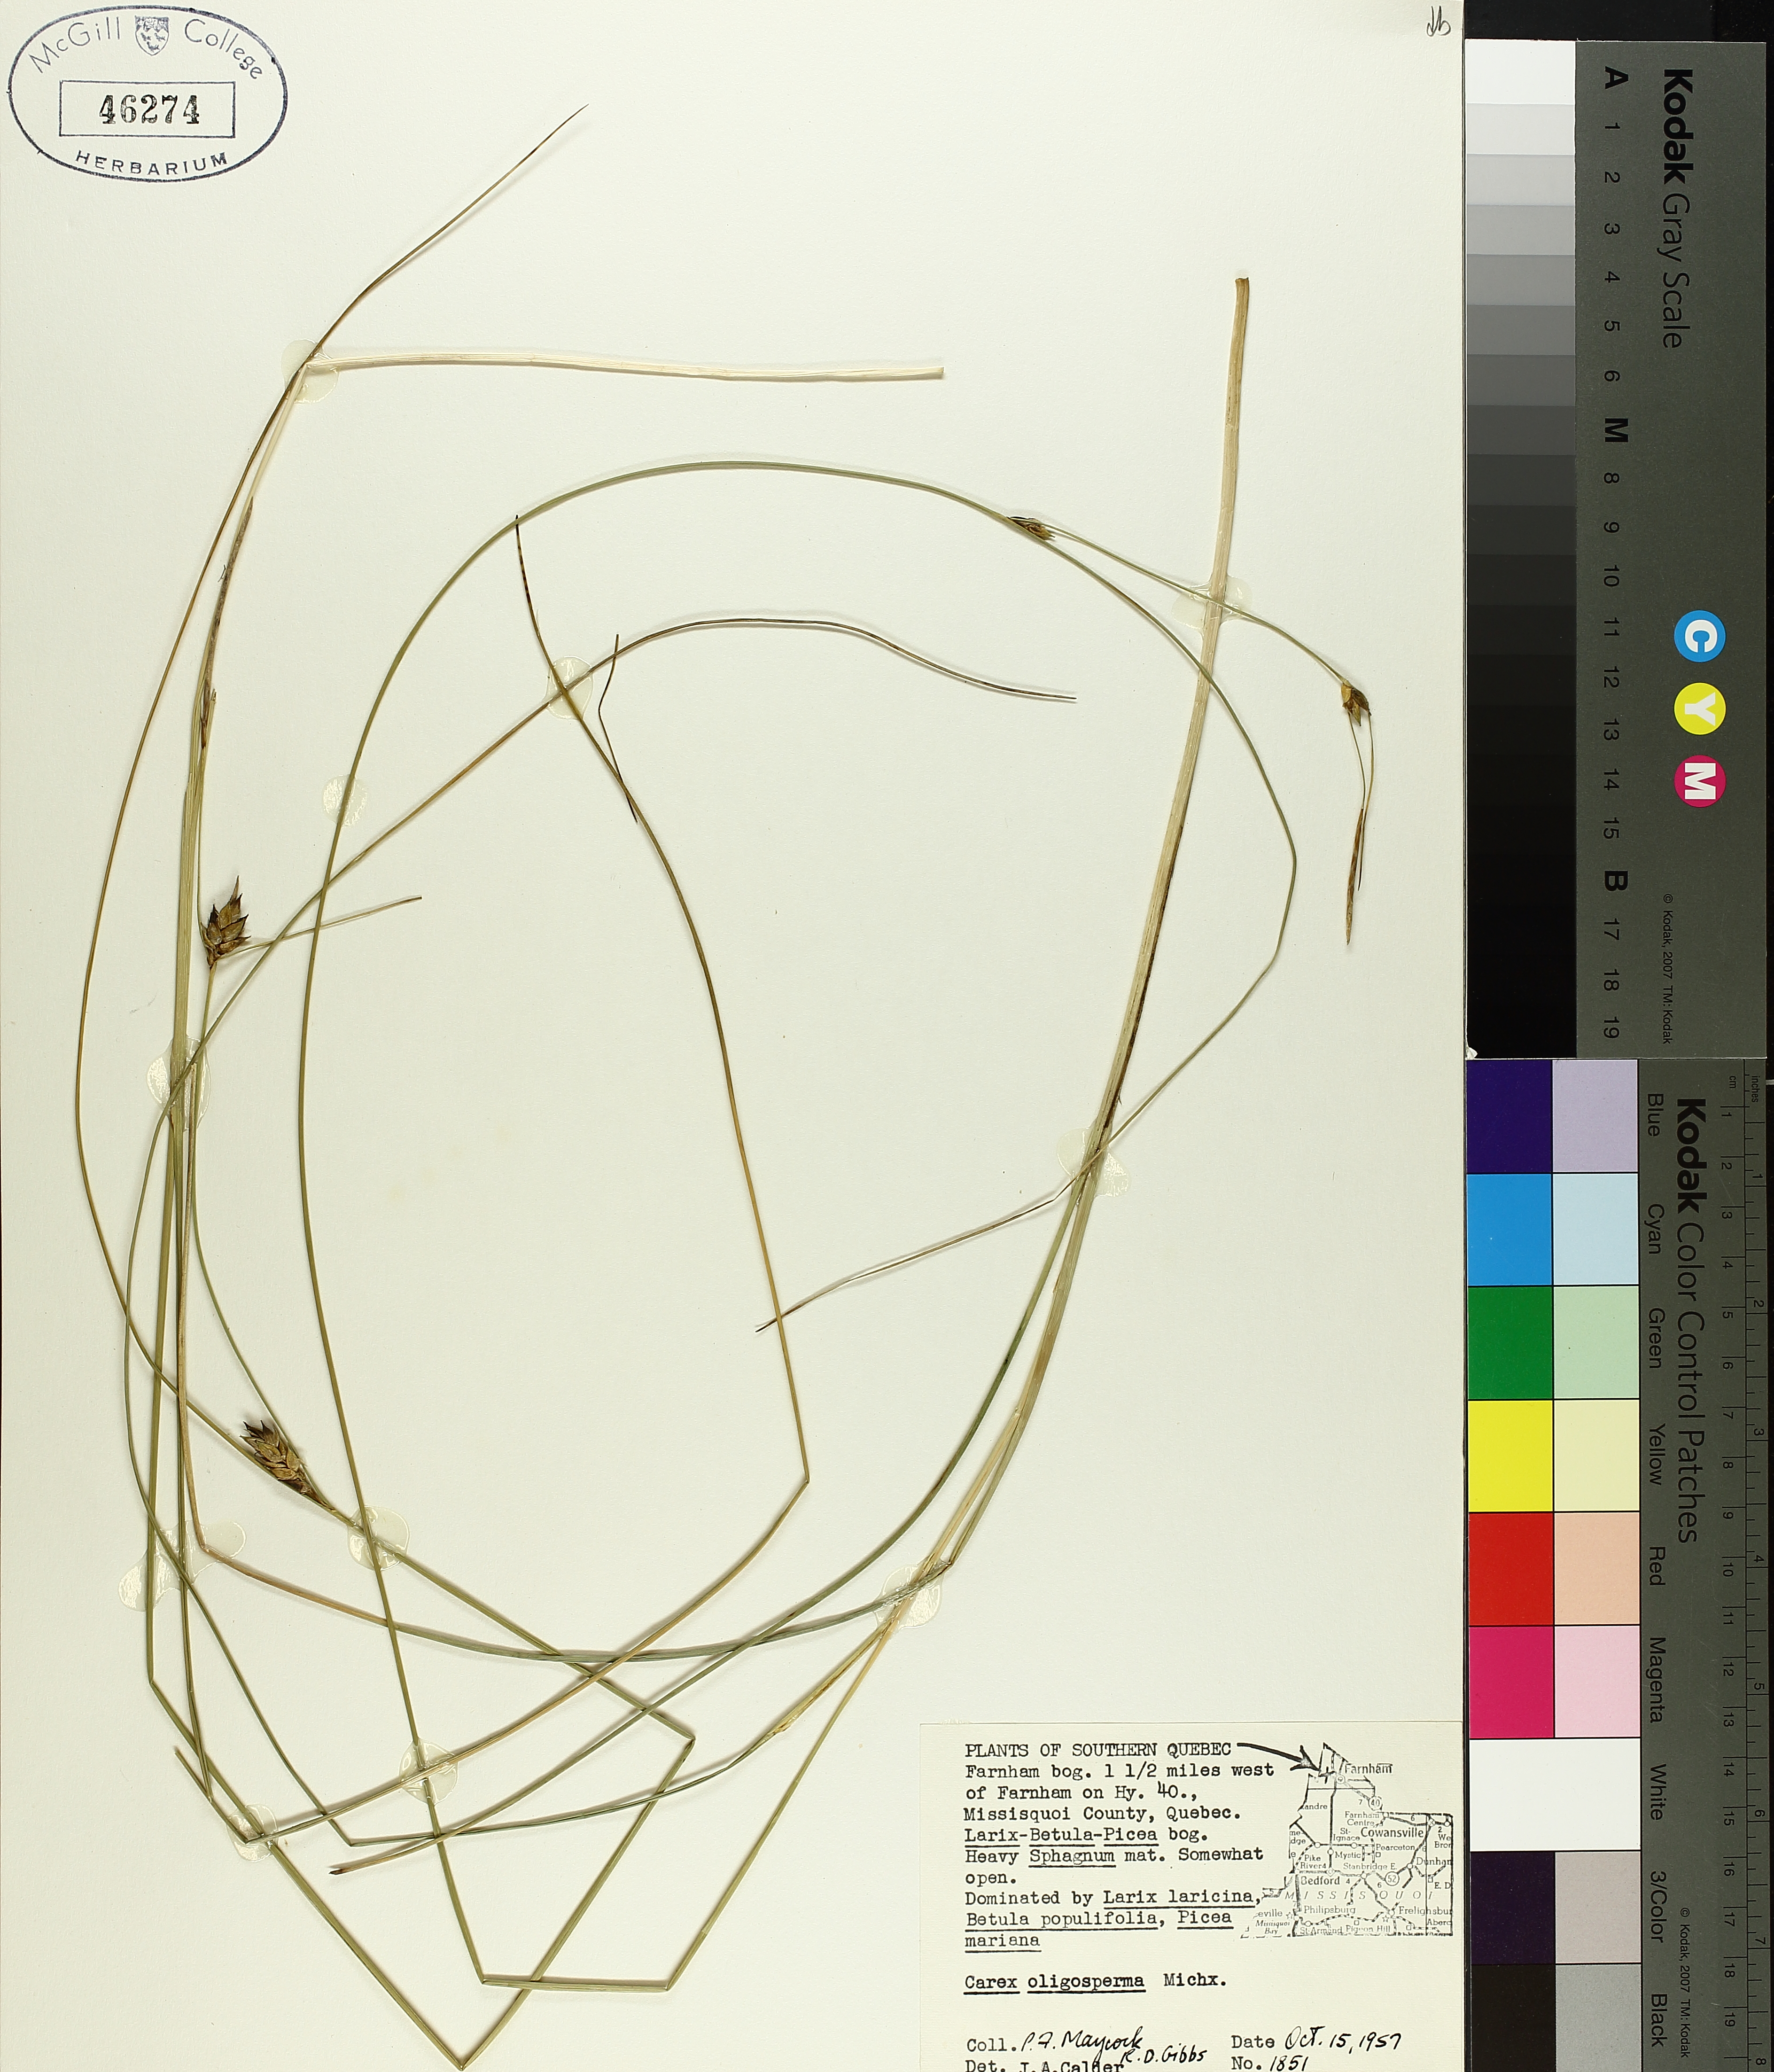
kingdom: Plantae
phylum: Tracheophyta
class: Liliopsida
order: Poales
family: Cyperaceae
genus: Carex
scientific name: Carex oligosperma
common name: Few-seed sedge
